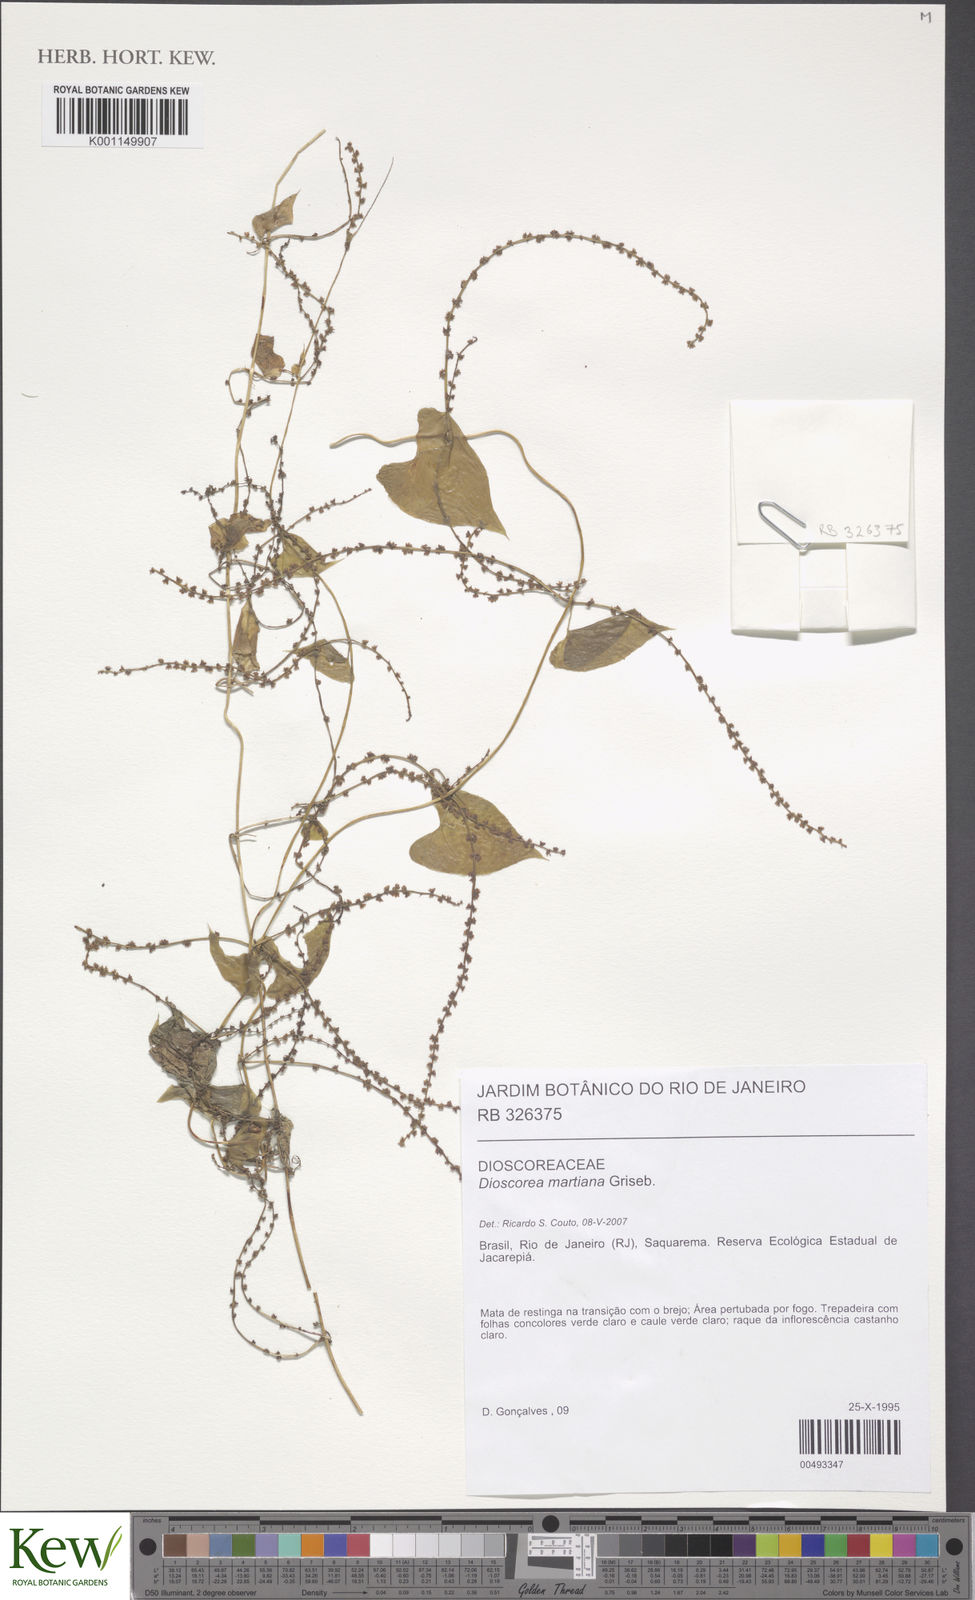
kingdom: Plantae
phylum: Tracheophyta
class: Liliopsida
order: Dioscoreales
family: Dioscoreaceae
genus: Dioscorea
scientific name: Dioscorea martiana
